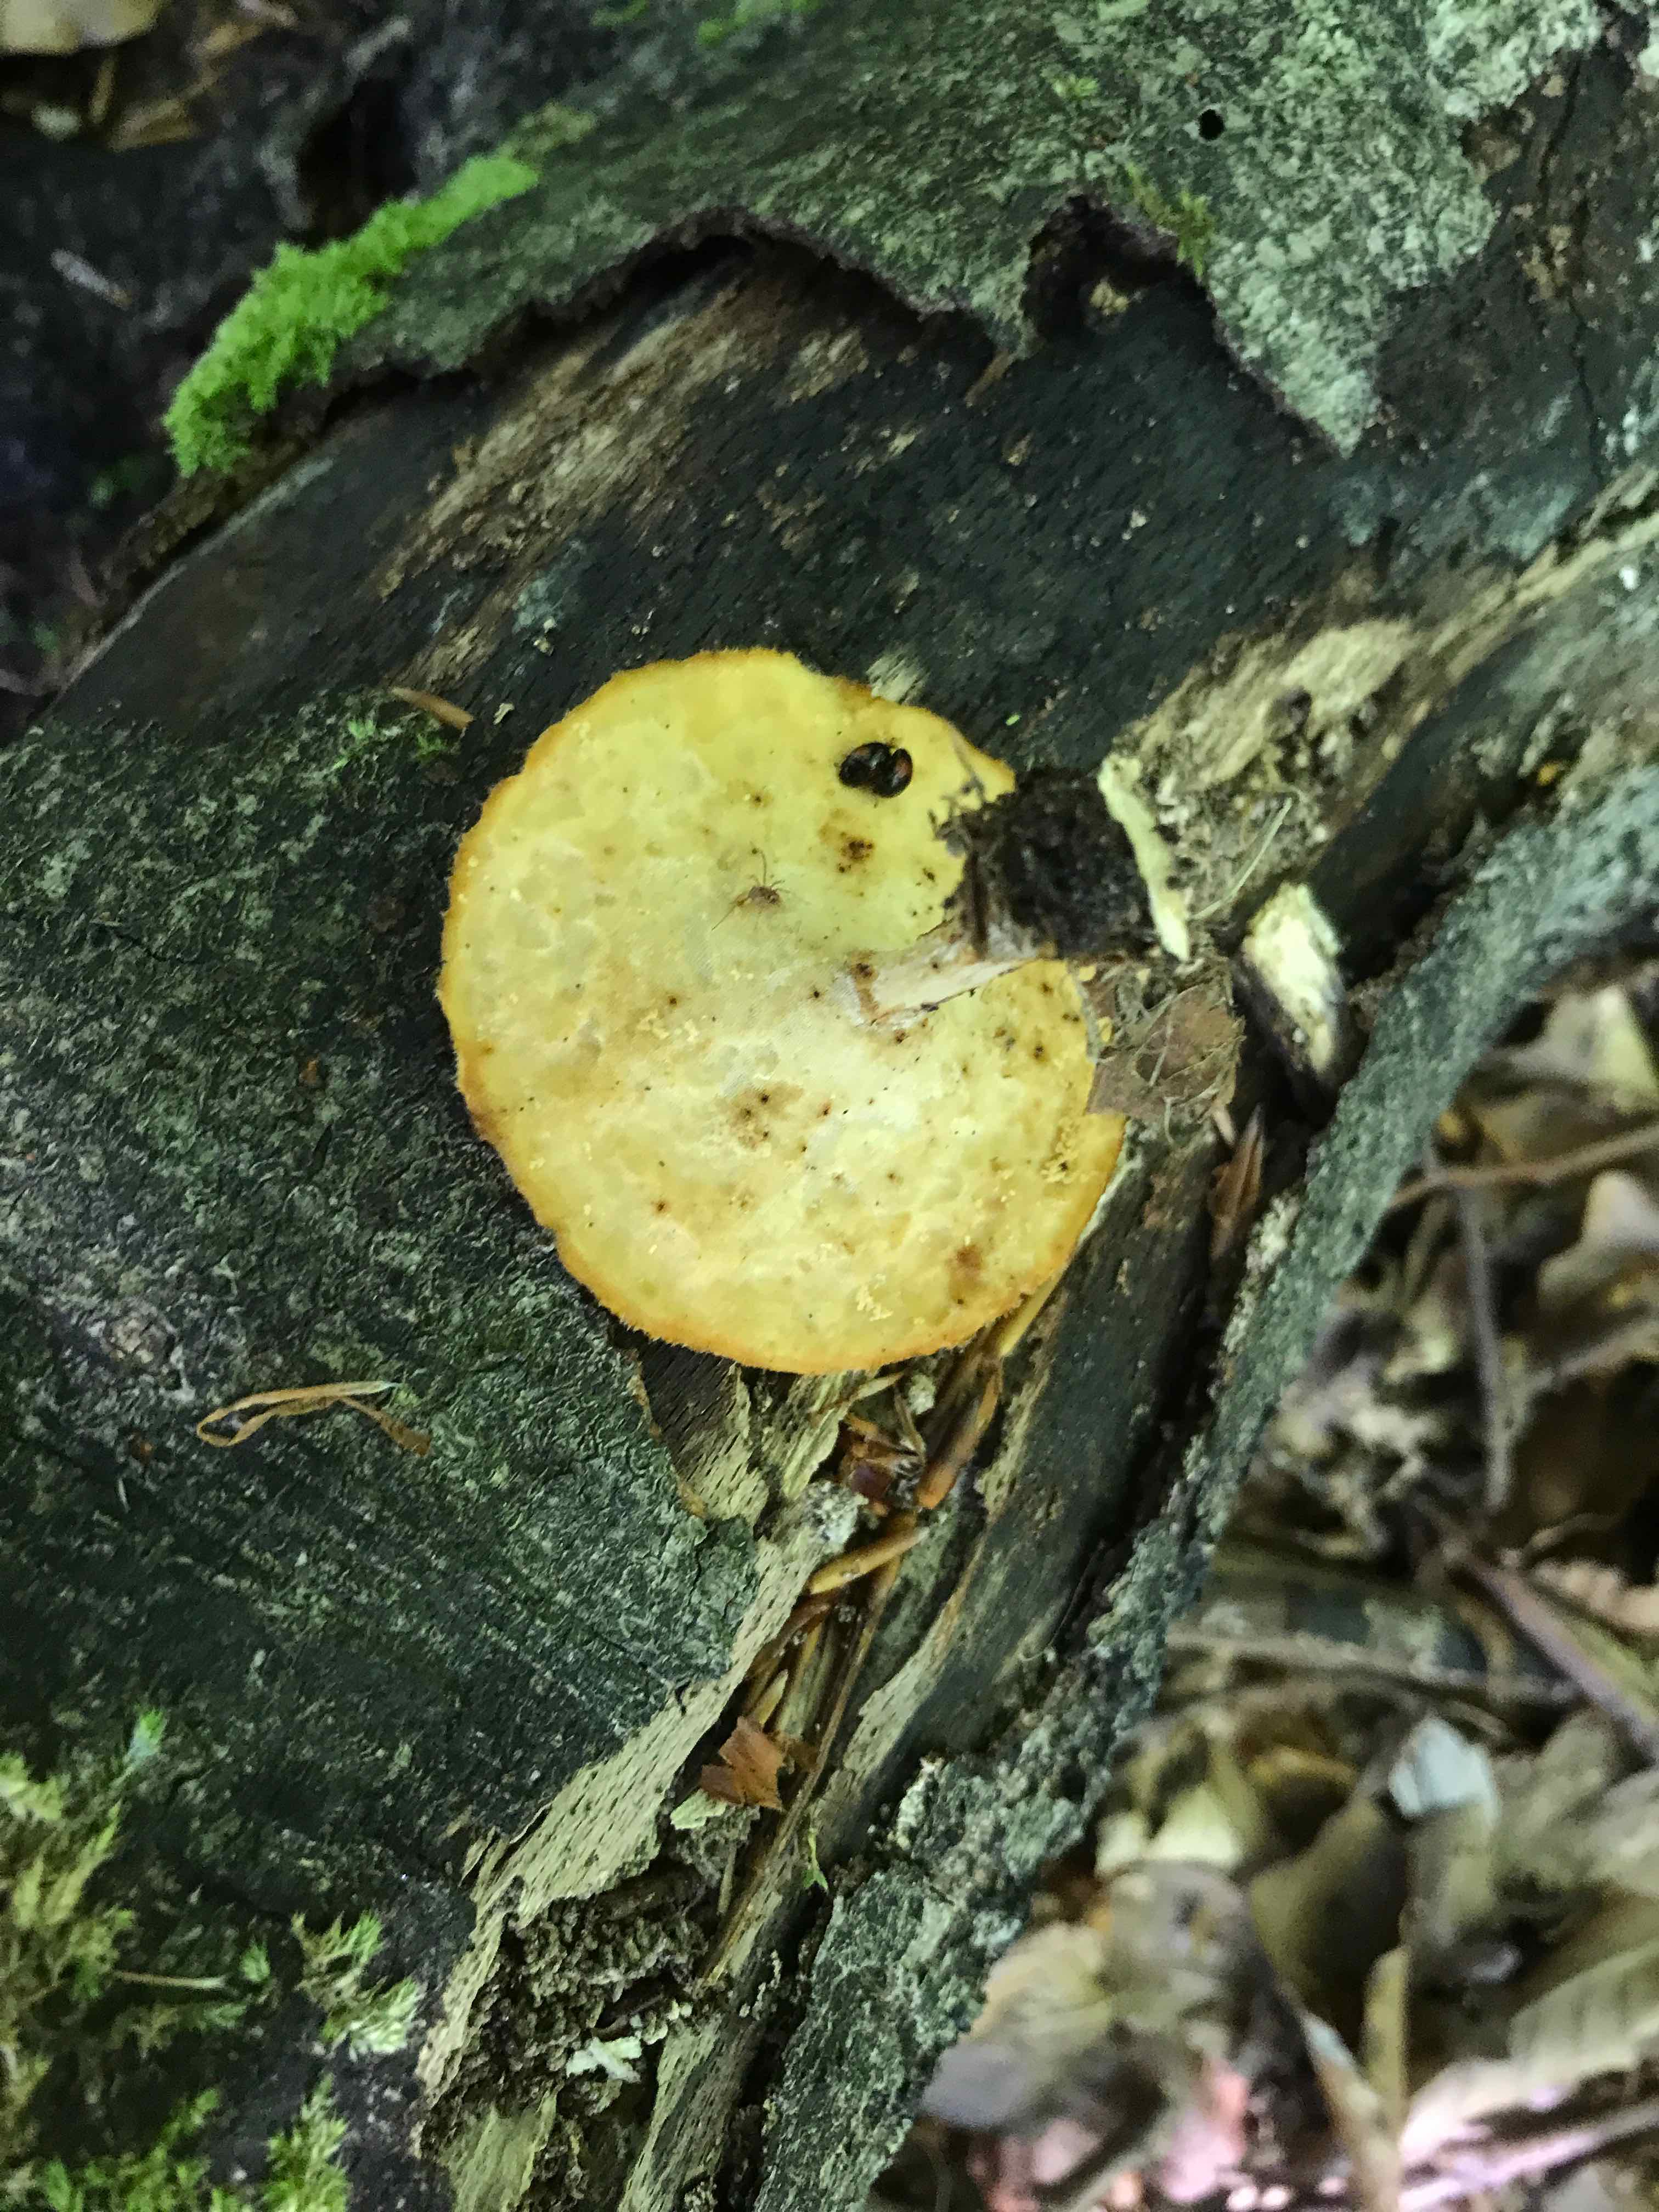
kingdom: Fungi
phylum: Basidiomycota
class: Agaricomycetes
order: Polyporales
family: Polyporaceae
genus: Lentinus
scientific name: Lentinus substrictus
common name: forårs-stilkporesvamp
